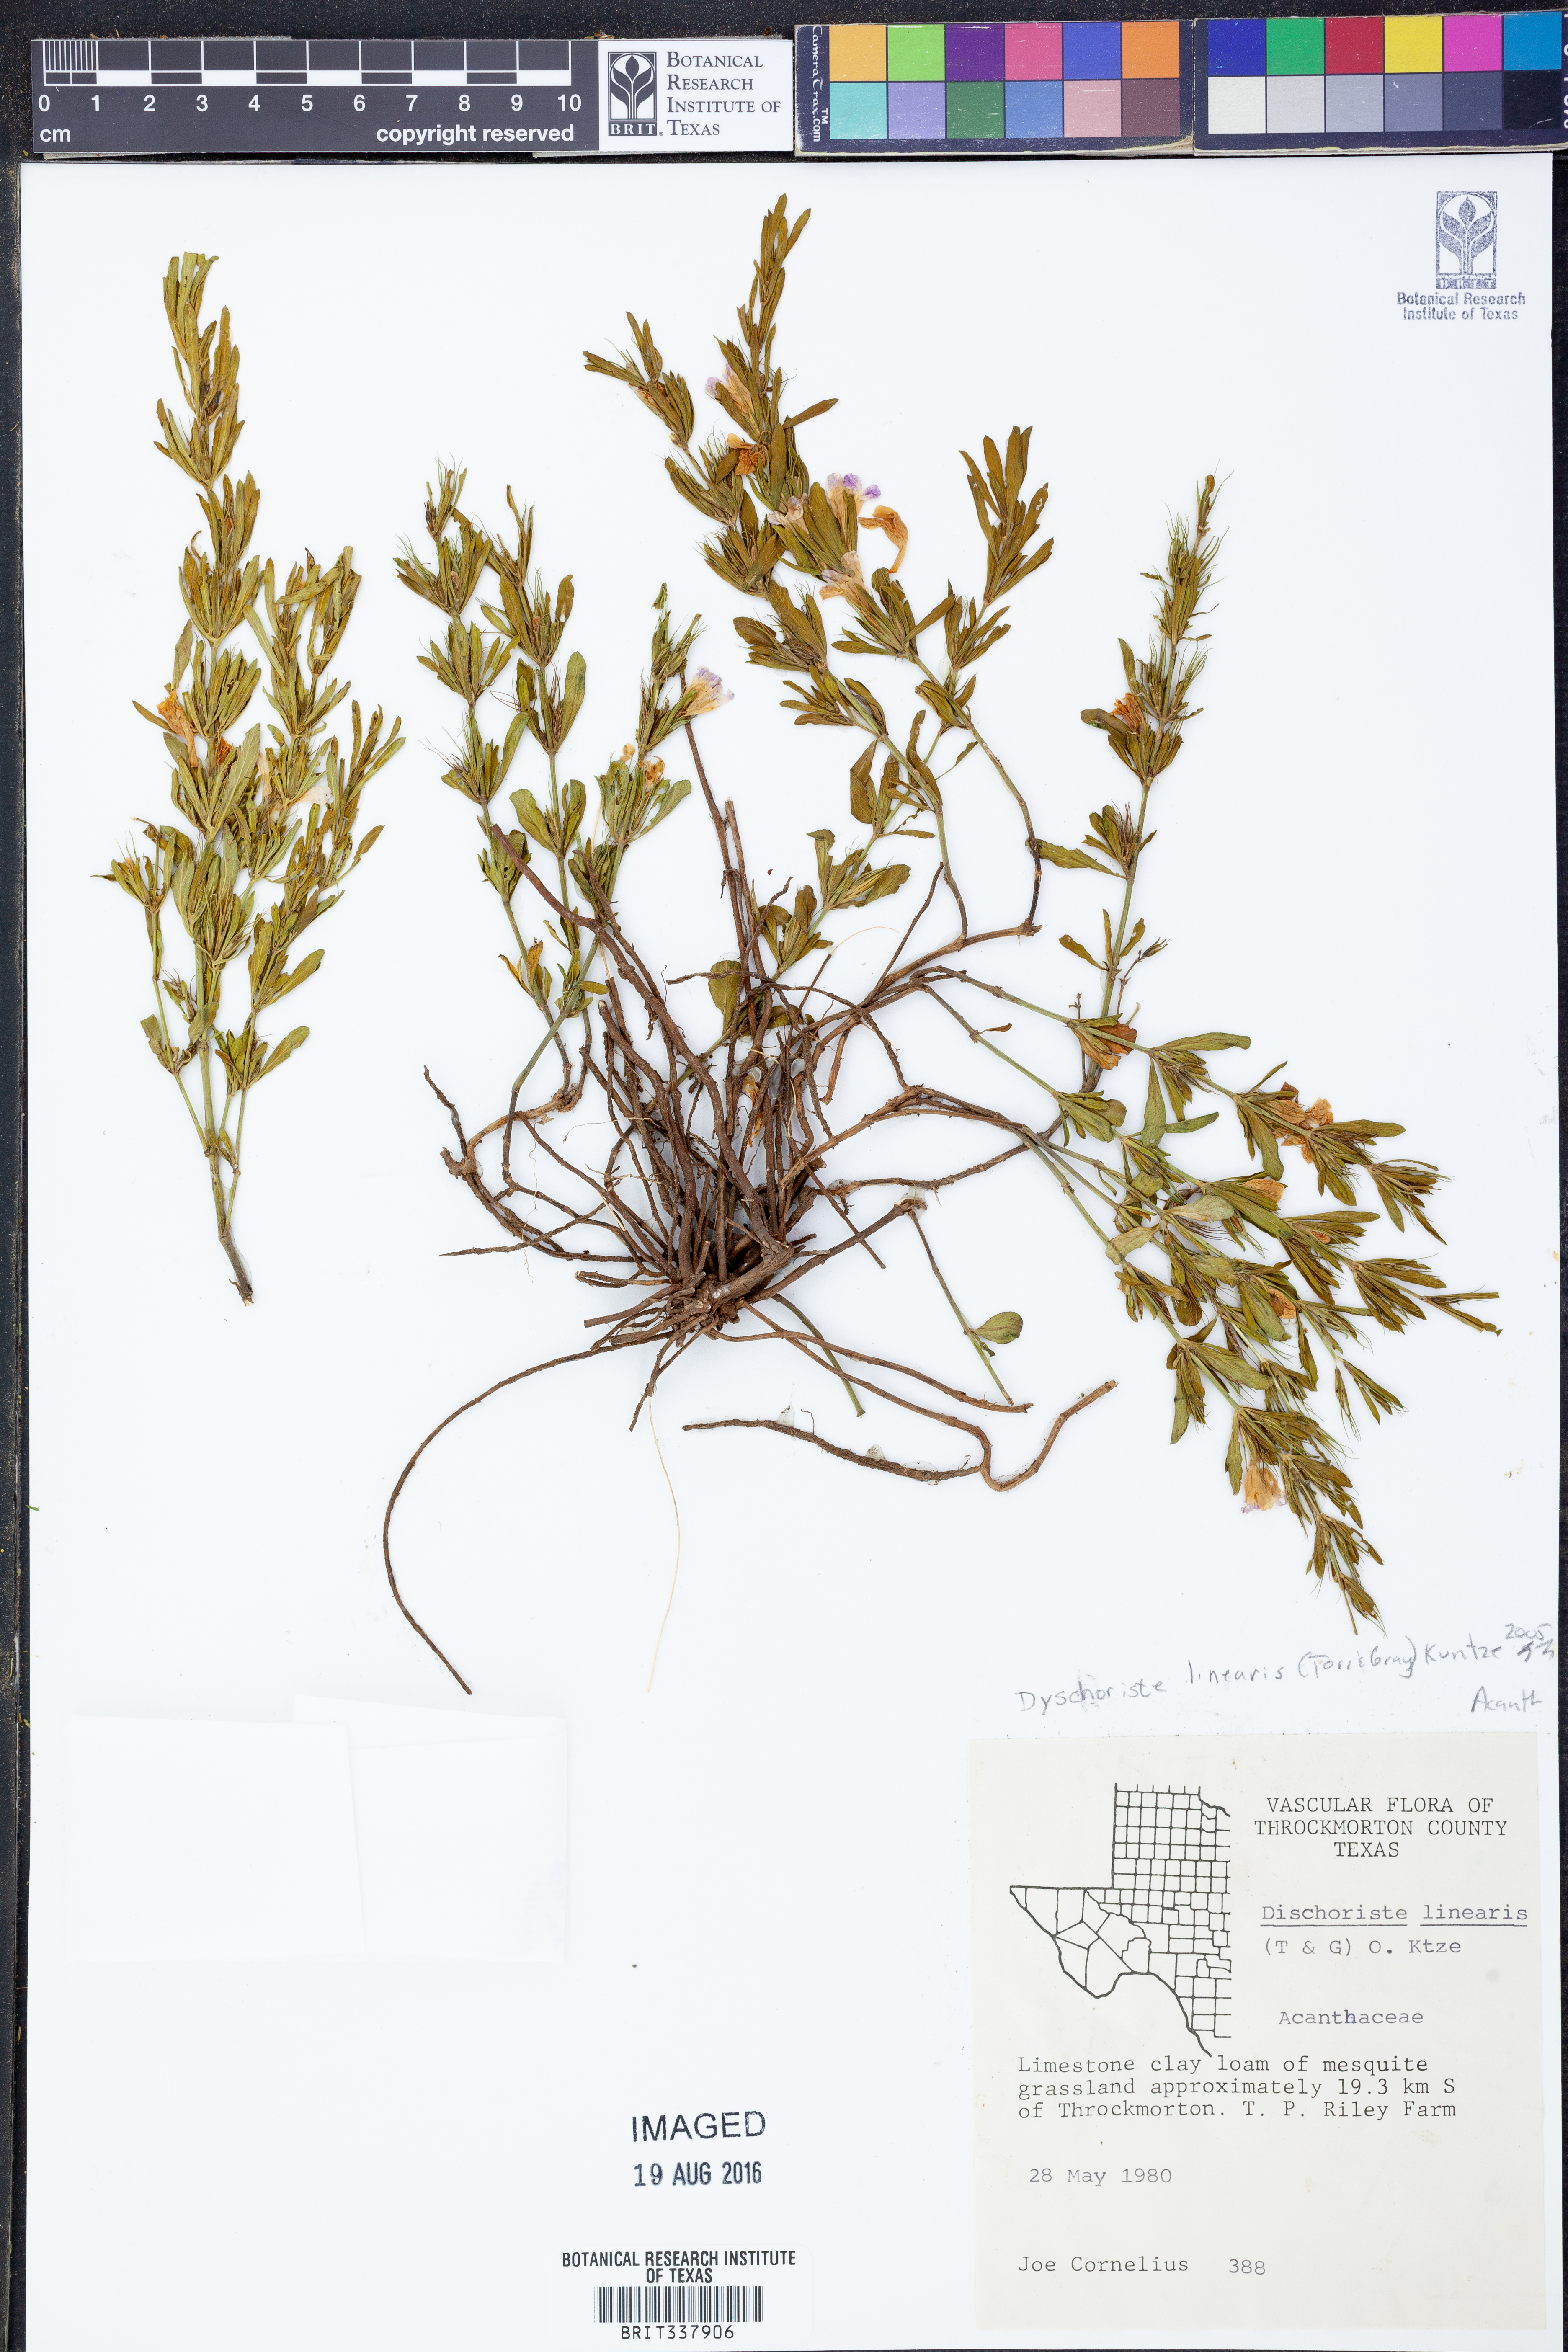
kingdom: Plantae
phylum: Tracheophyta
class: Magnoliopsida
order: Lamiales
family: Acanthaceae
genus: Dyschoriste
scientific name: Dyschoriste linearis
